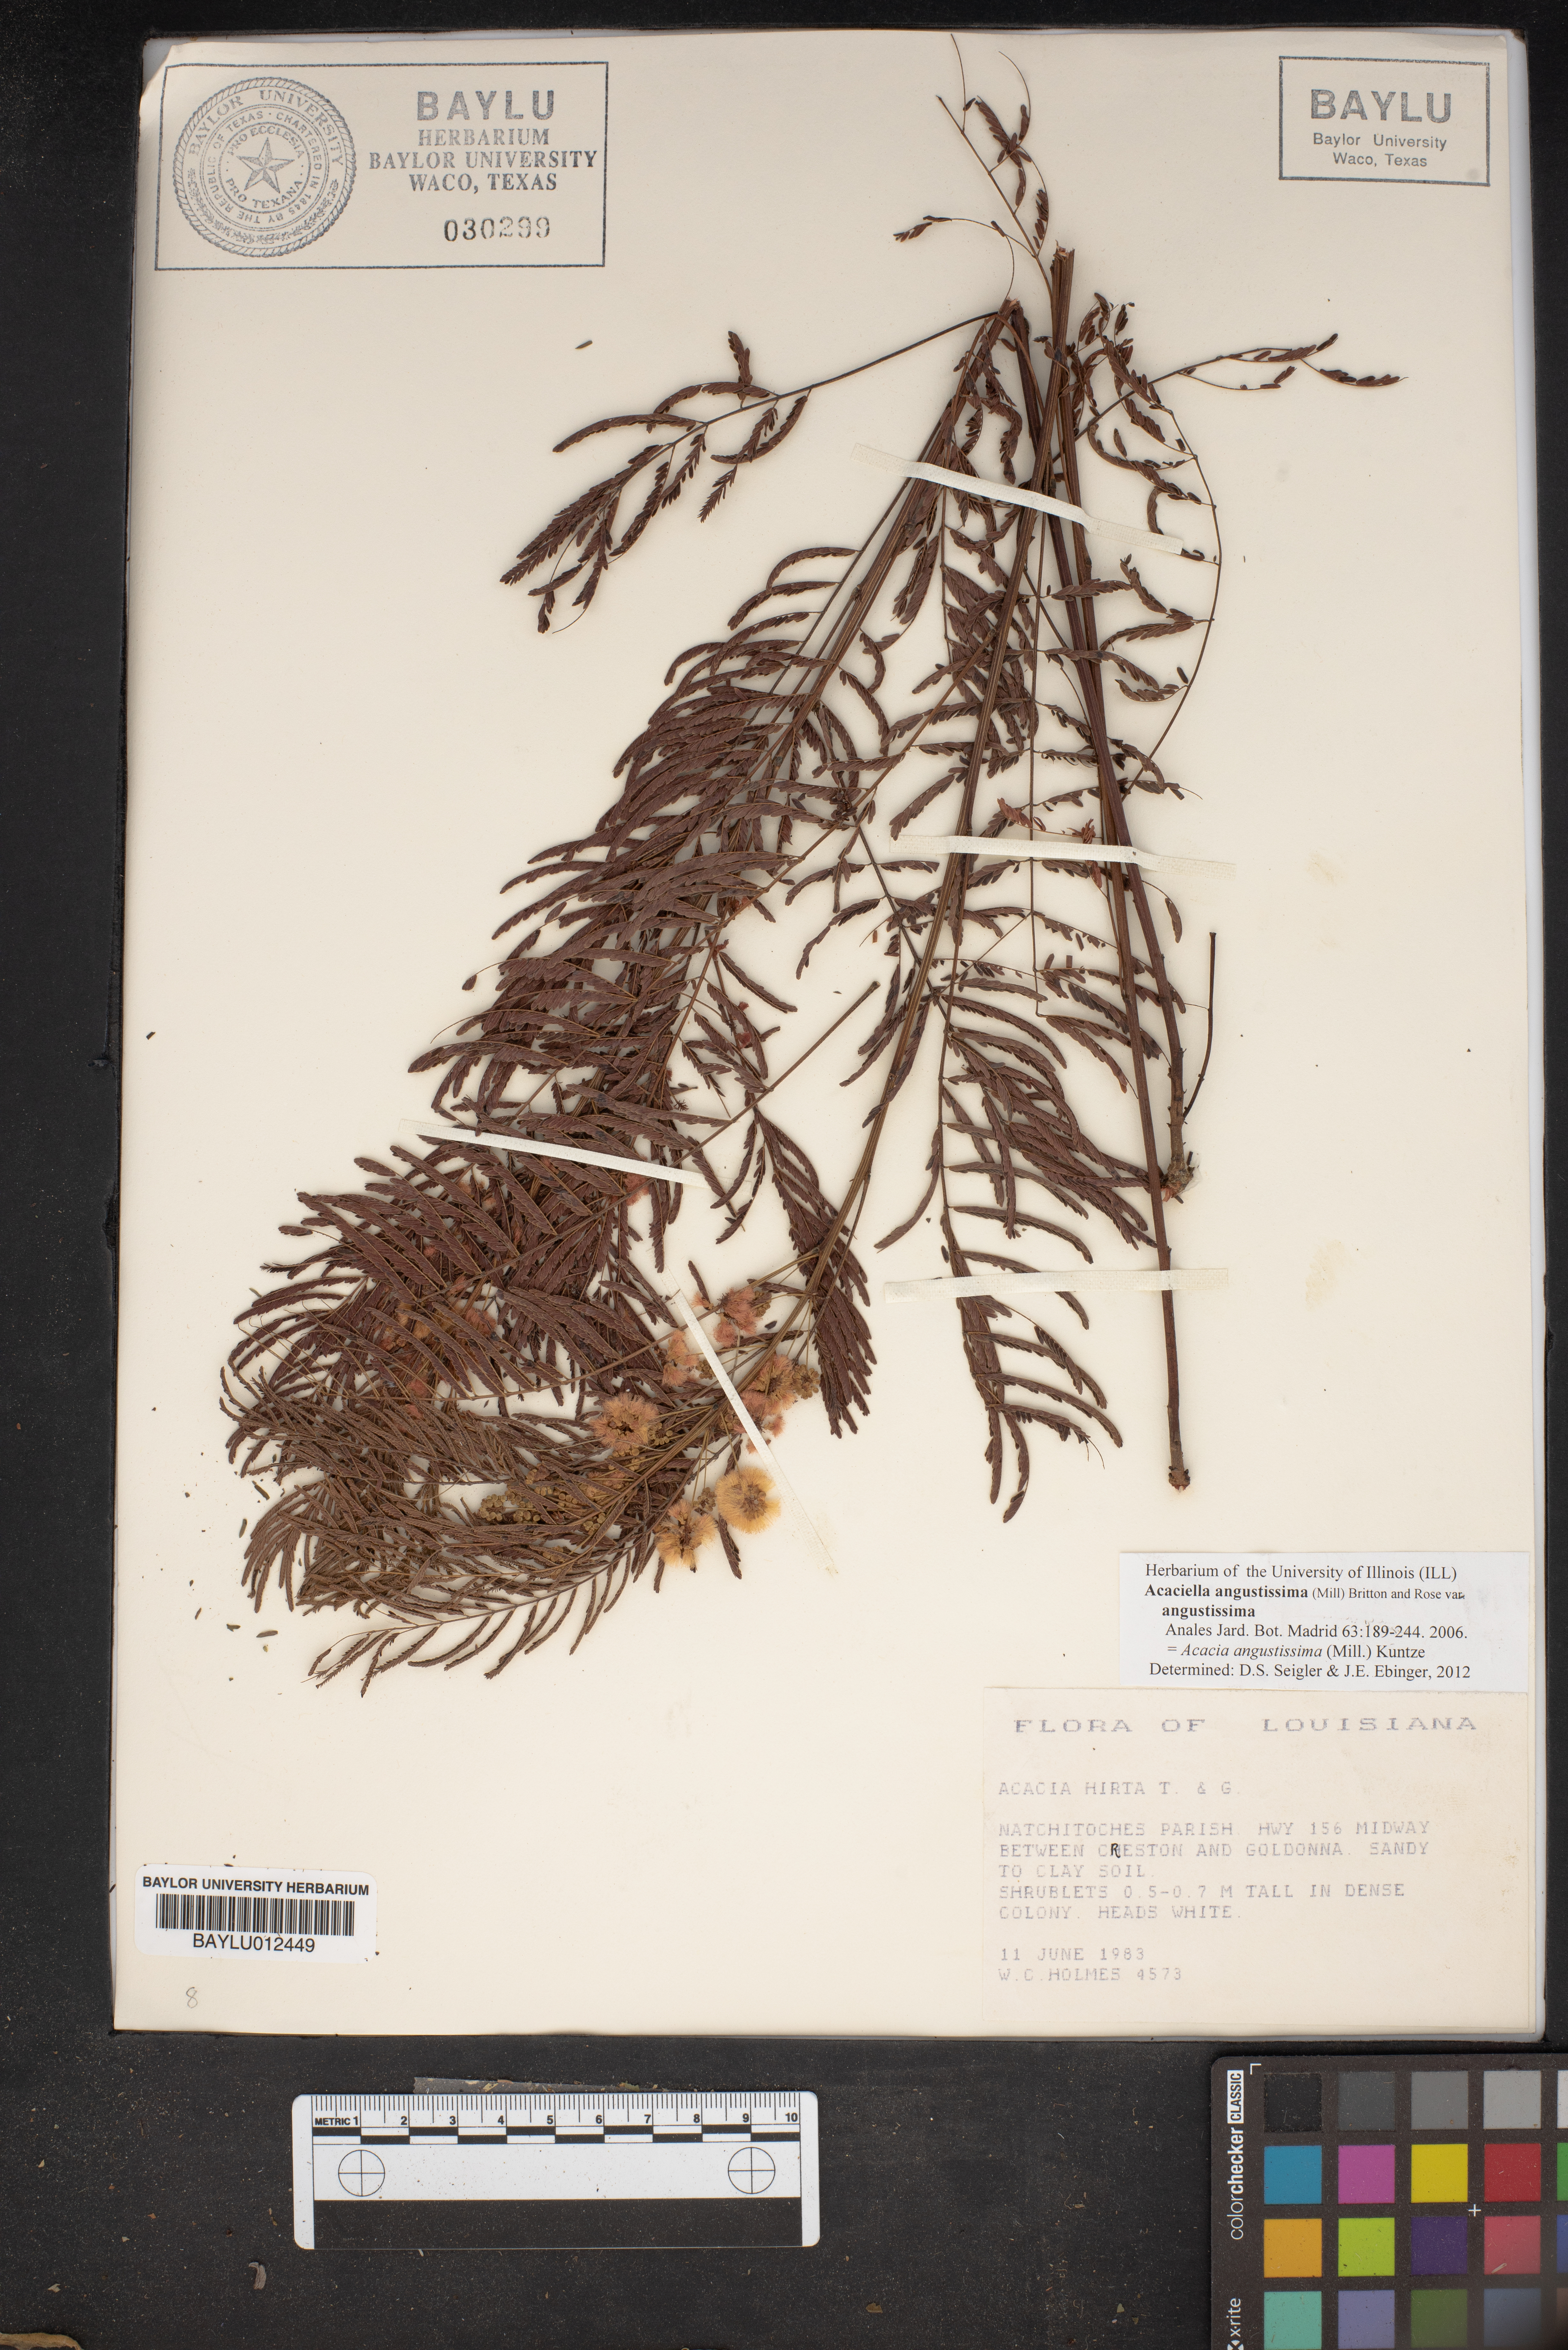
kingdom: Plantae
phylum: Tracheophyta
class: Magnoliopsida
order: Fabales
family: Fabaceae
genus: Acaciella
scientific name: Acaciella angustissima
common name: Prairie acacia
